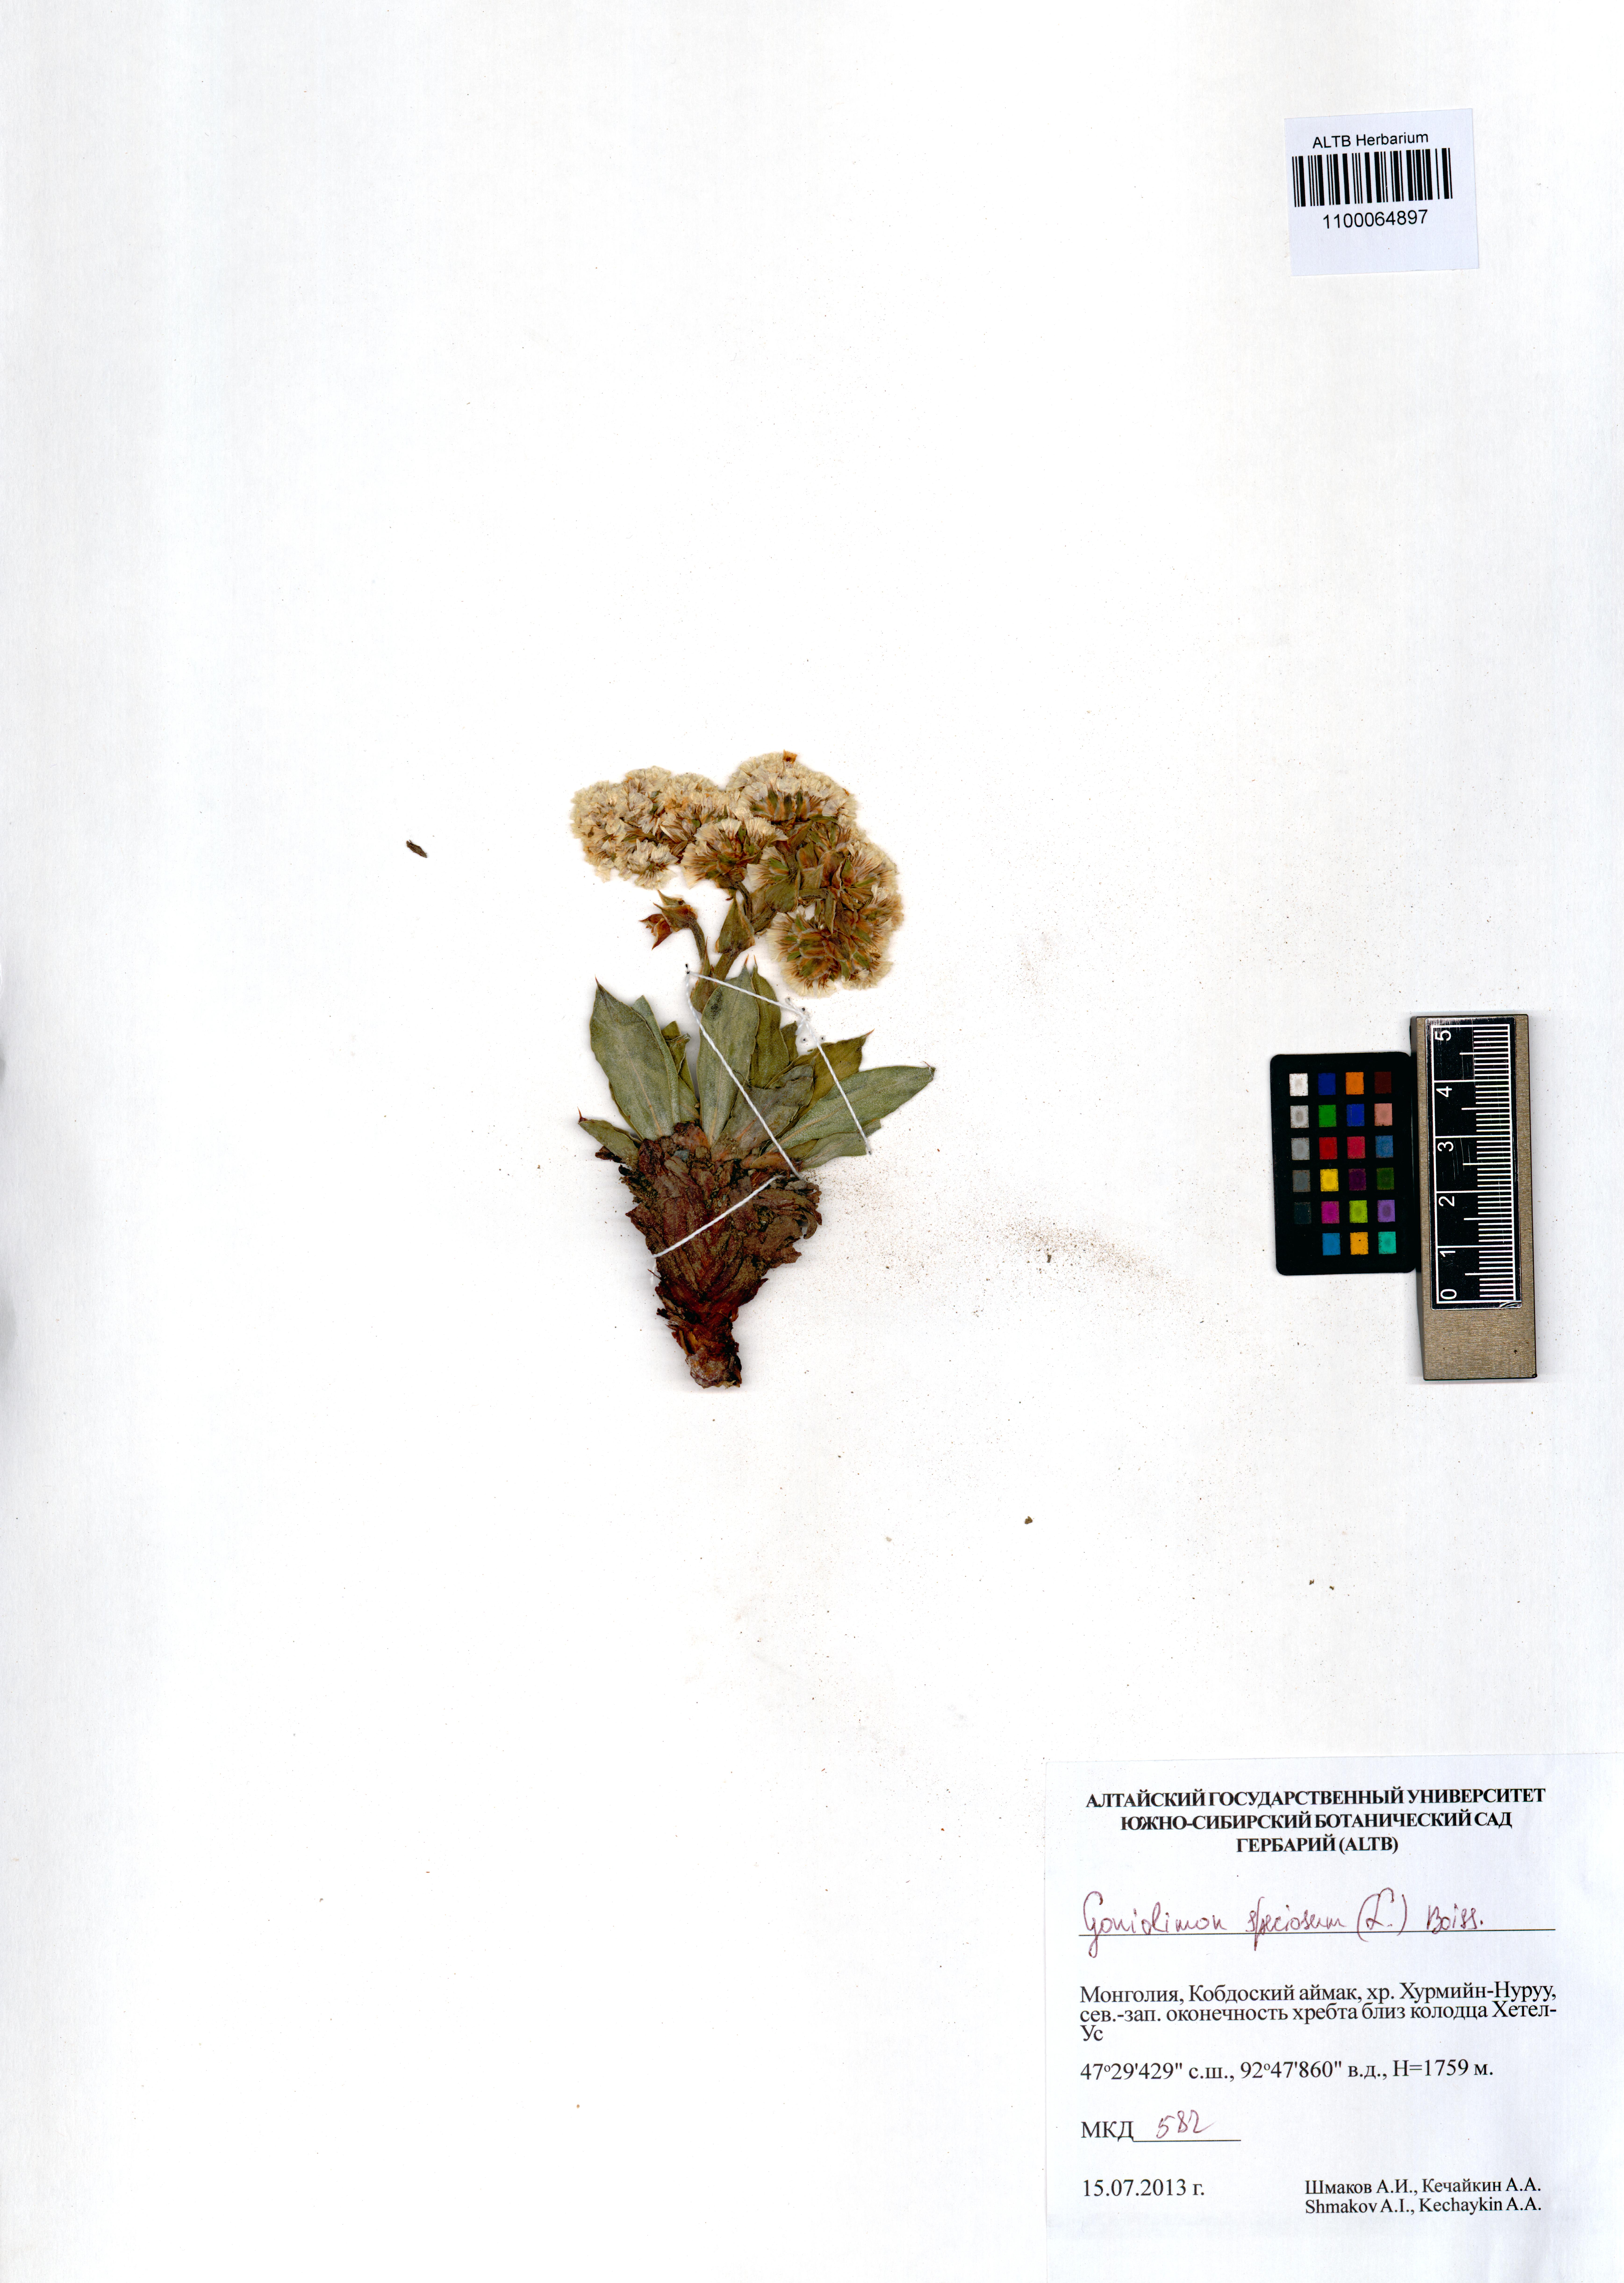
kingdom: Plantae
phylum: Tracheophyta
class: Magnoliopsida
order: Caryophyllales
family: Plumbaginaceae
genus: Goniolimon
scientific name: Goniolimon speciosum
